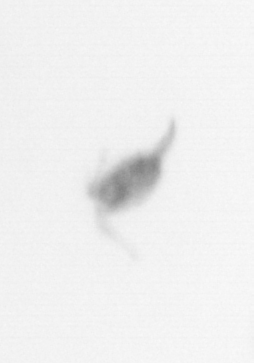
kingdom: Animalia
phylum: Arthropoda
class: Copepoda
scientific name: Copepoda
